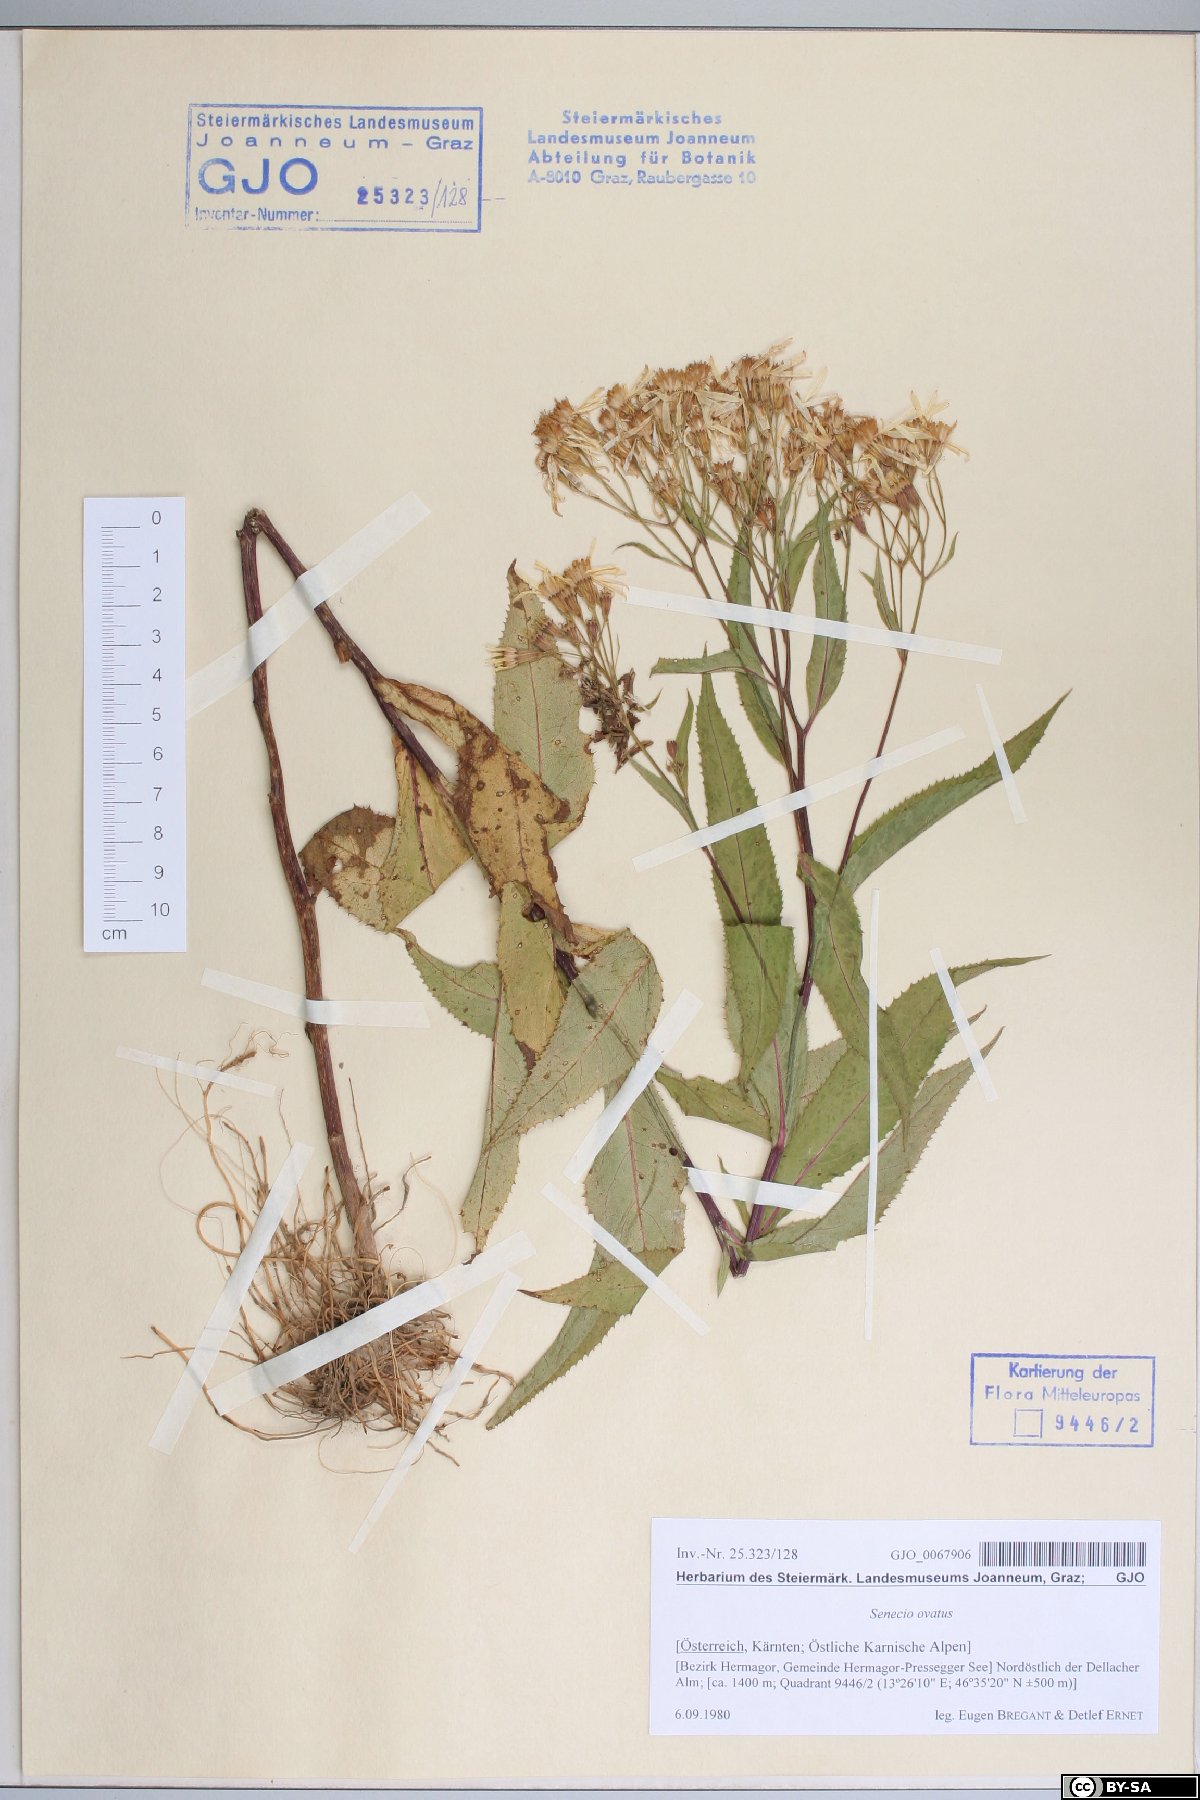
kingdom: Plantae
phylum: Tracheophyta
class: Magnoliopsida
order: Asterales
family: Asteraceae
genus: Senecio
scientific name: Senecio ovatus
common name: Wood ragwort
